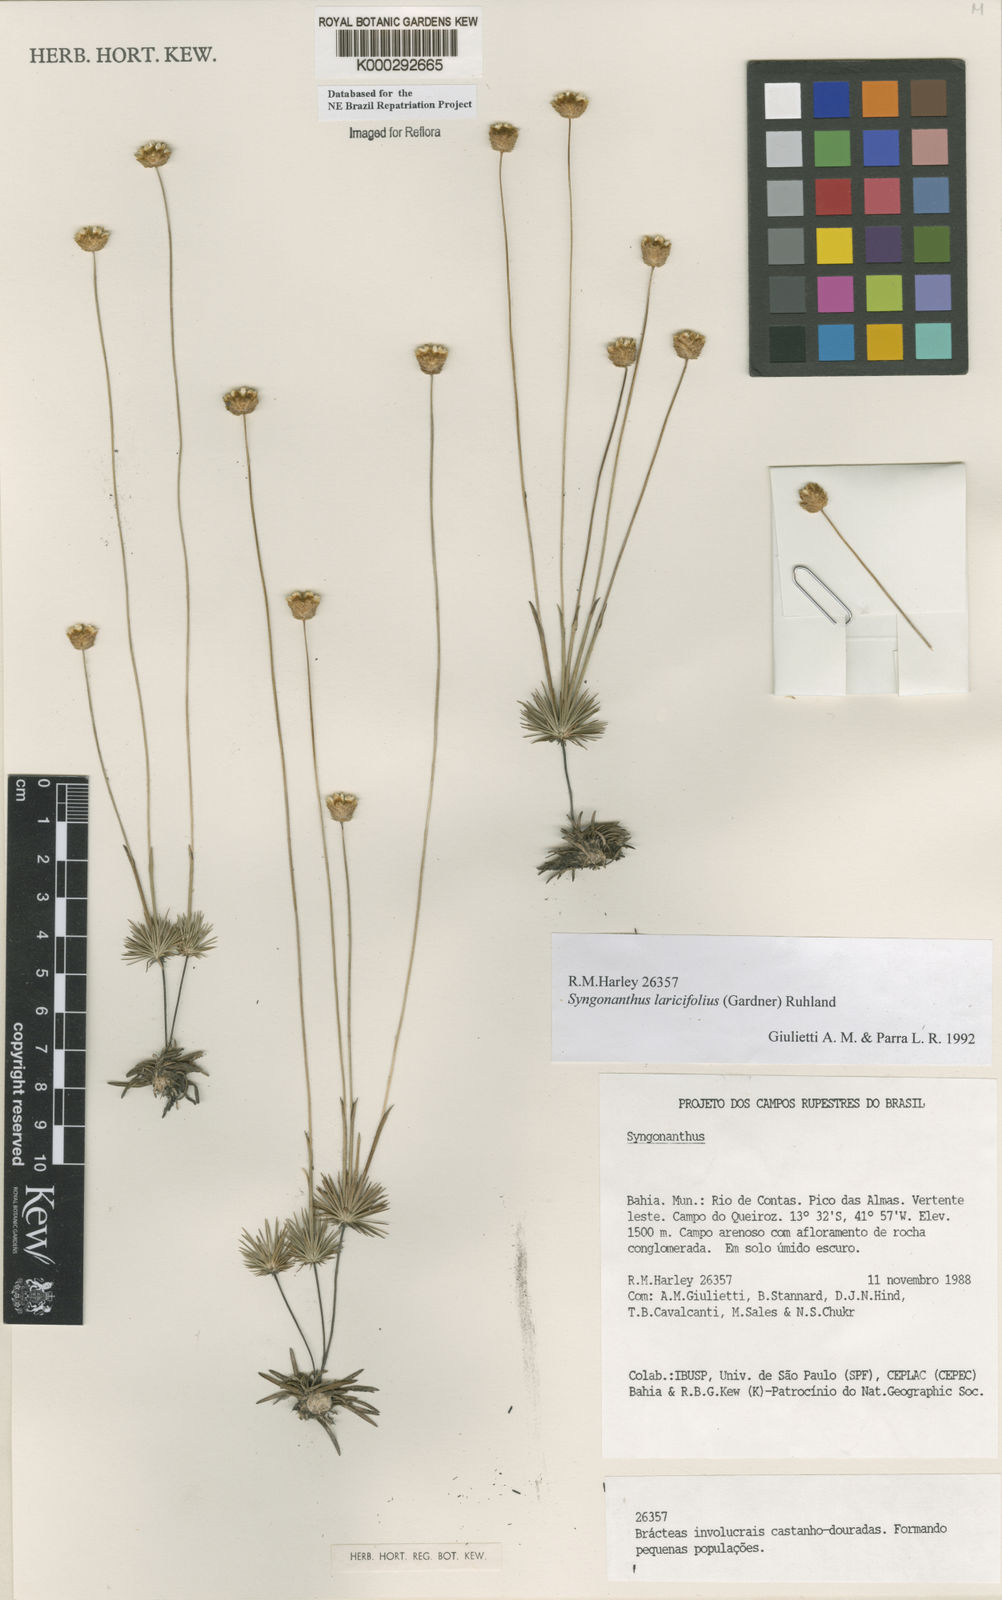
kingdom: Plantae
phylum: Tracheophyta
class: Liliopsida
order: Poales
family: Eriocaulaceae
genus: Syngonanthus
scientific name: Syngonanthus laricifolius
